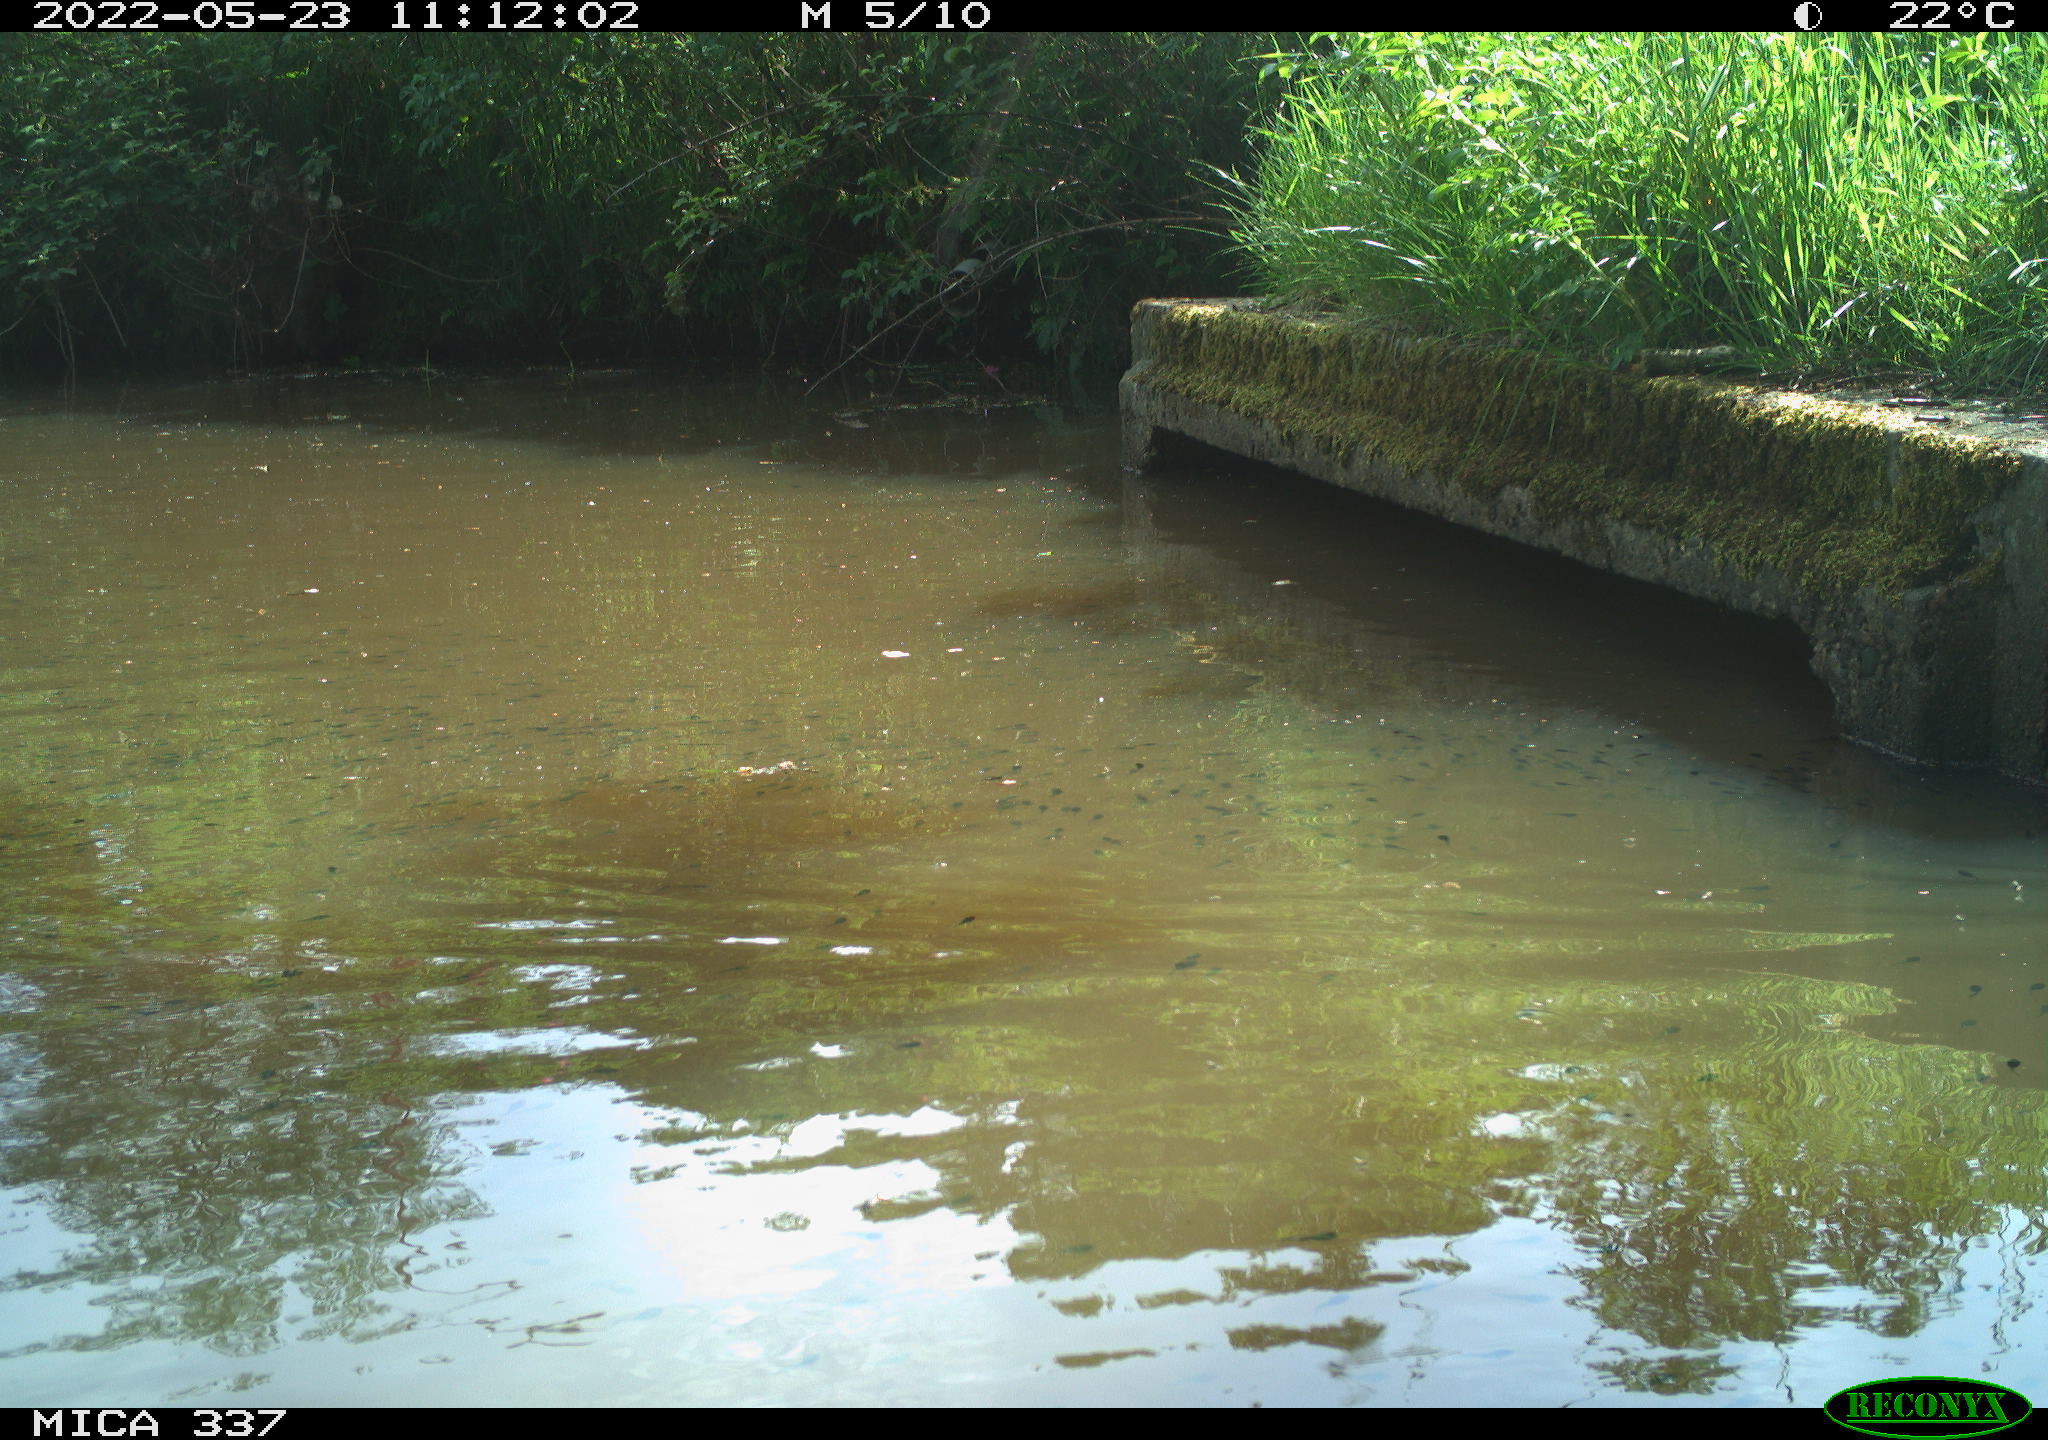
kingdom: Animalia
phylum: Chordata
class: Aves
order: Gruiformes
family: Rallidae
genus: Gallinula
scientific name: Gallinula chloropus
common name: Common moorhen
